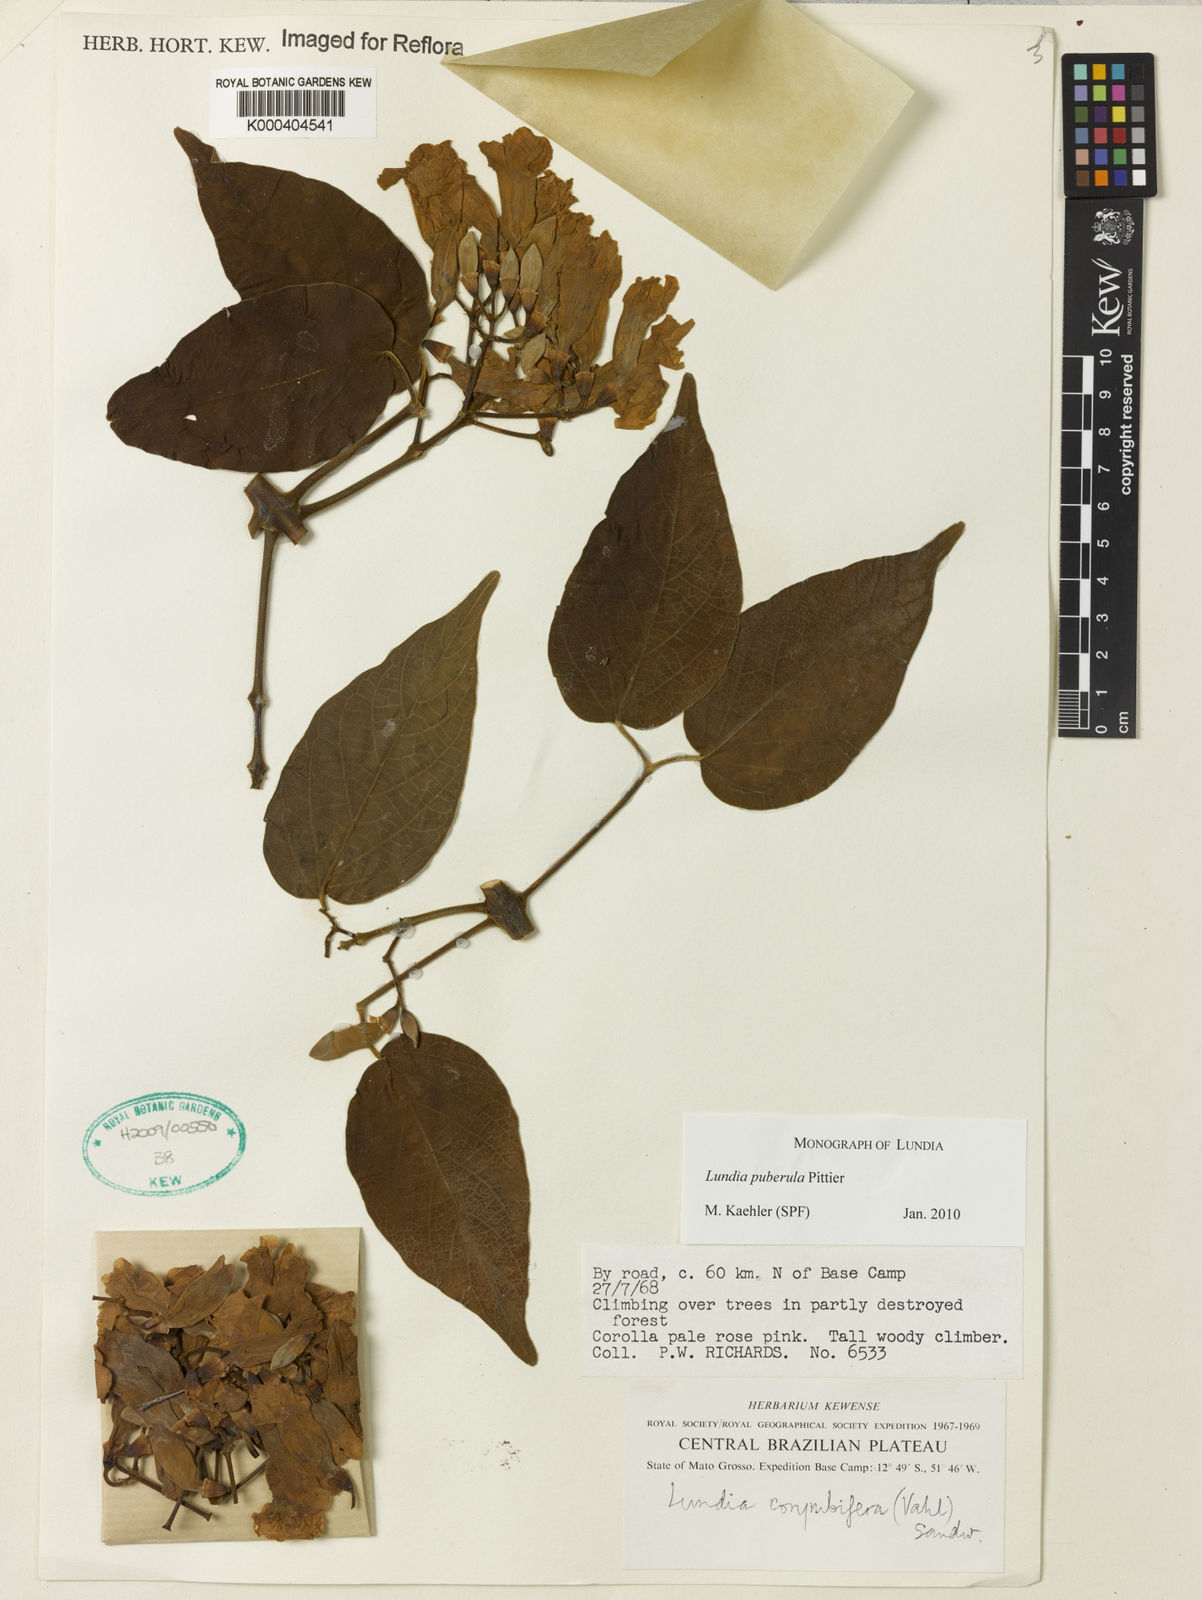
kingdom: Plantae
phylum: Tracheophyta
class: Magnoliopsida
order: Lamiales
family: Bignoniaceae
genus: Lundia
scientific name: Lundia puberula
